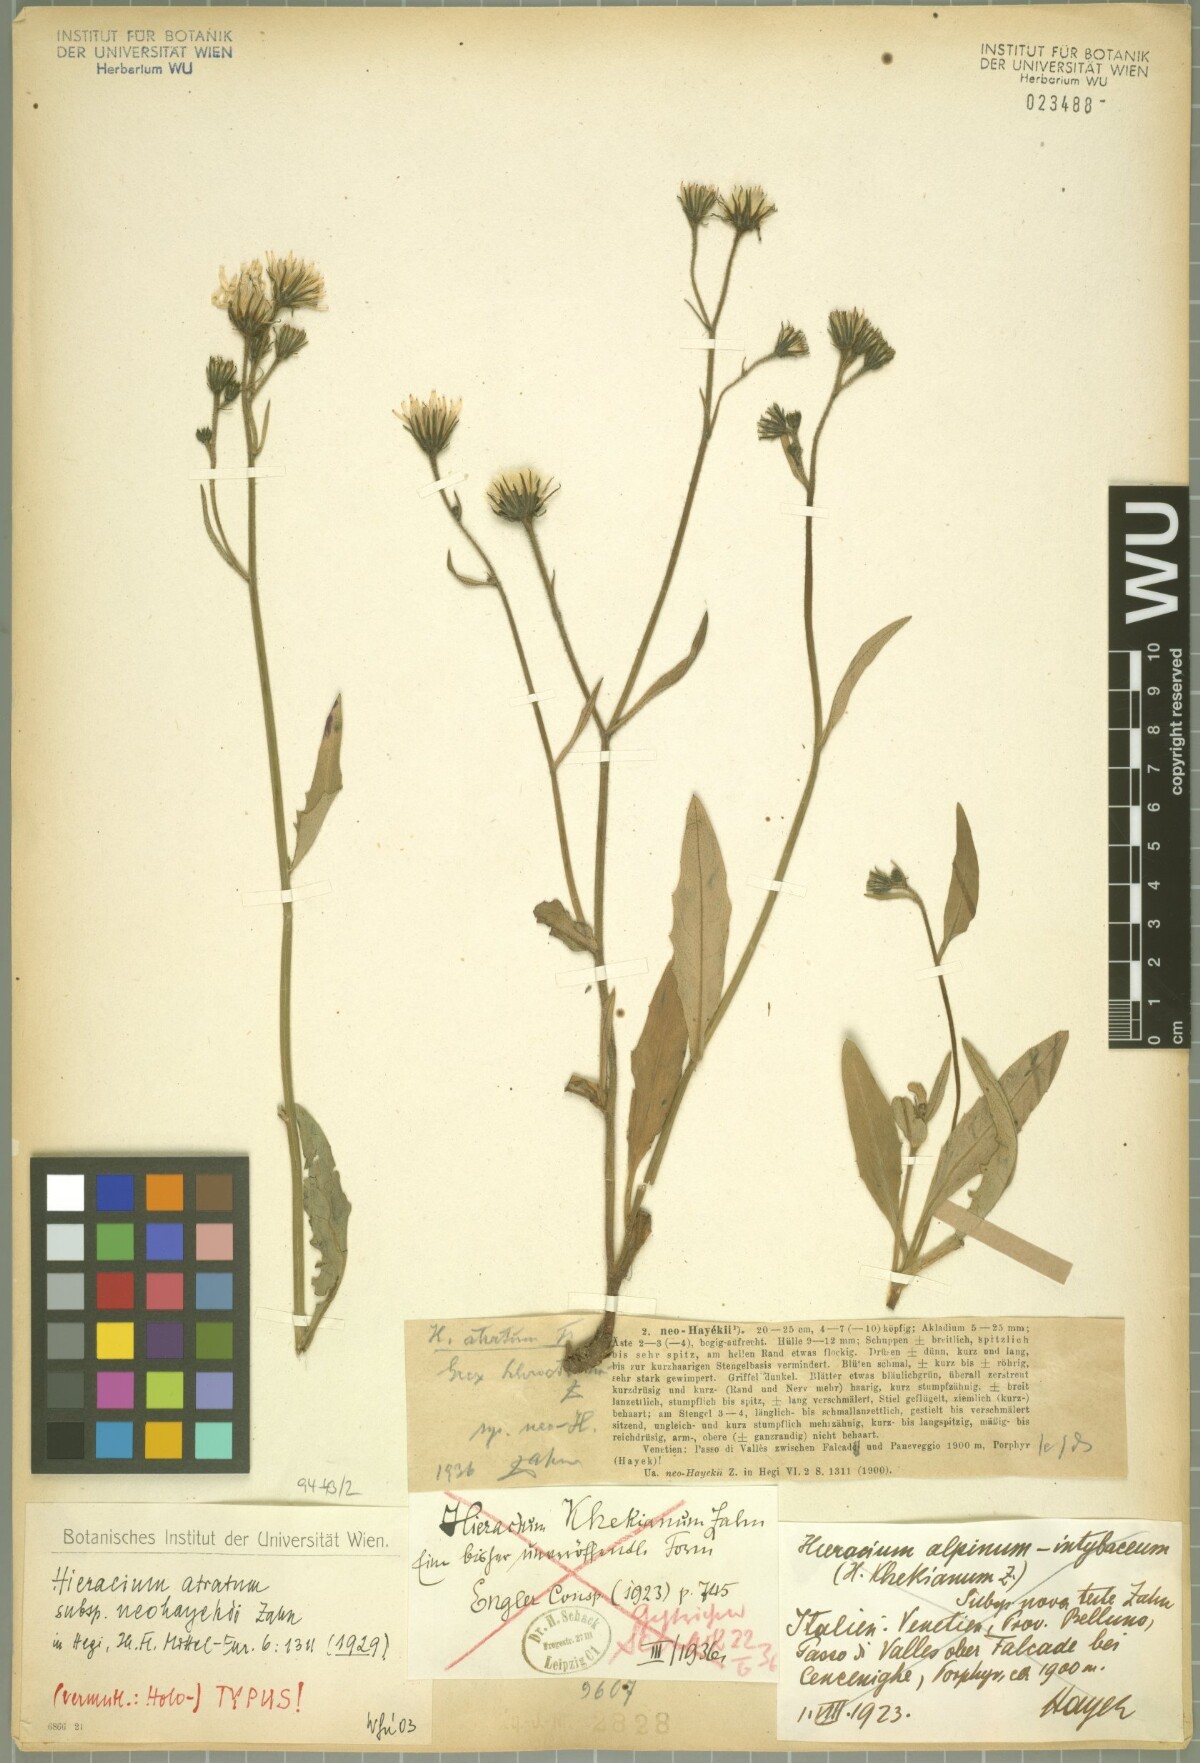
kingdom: Plantae
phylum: Tracheophyta
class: Magnoliopsida
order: Asterales
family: Asteraceae
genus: Hieracium
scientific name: Hieracium atratum
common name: Polar hawkweed
